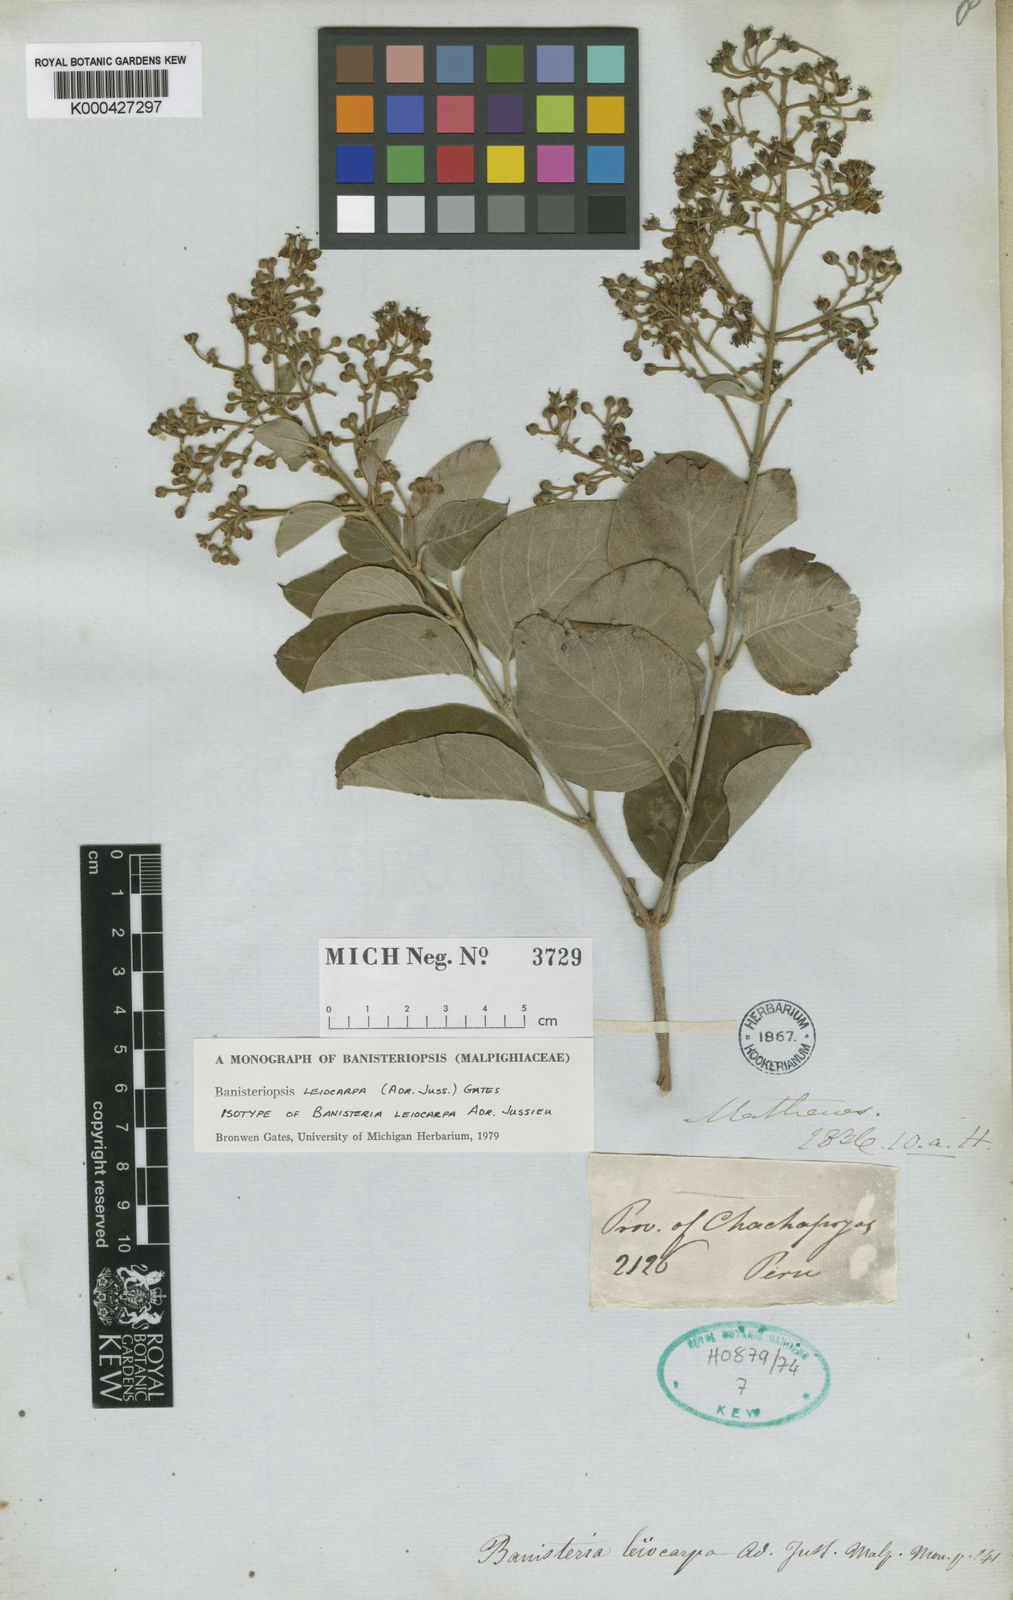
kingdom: Plantae
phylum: Tracheophyta
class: Magnoliopsida
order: Malpighiales
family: Malpighiaceae
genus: Diplopterys
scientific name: Diplopterys leiocarpa
